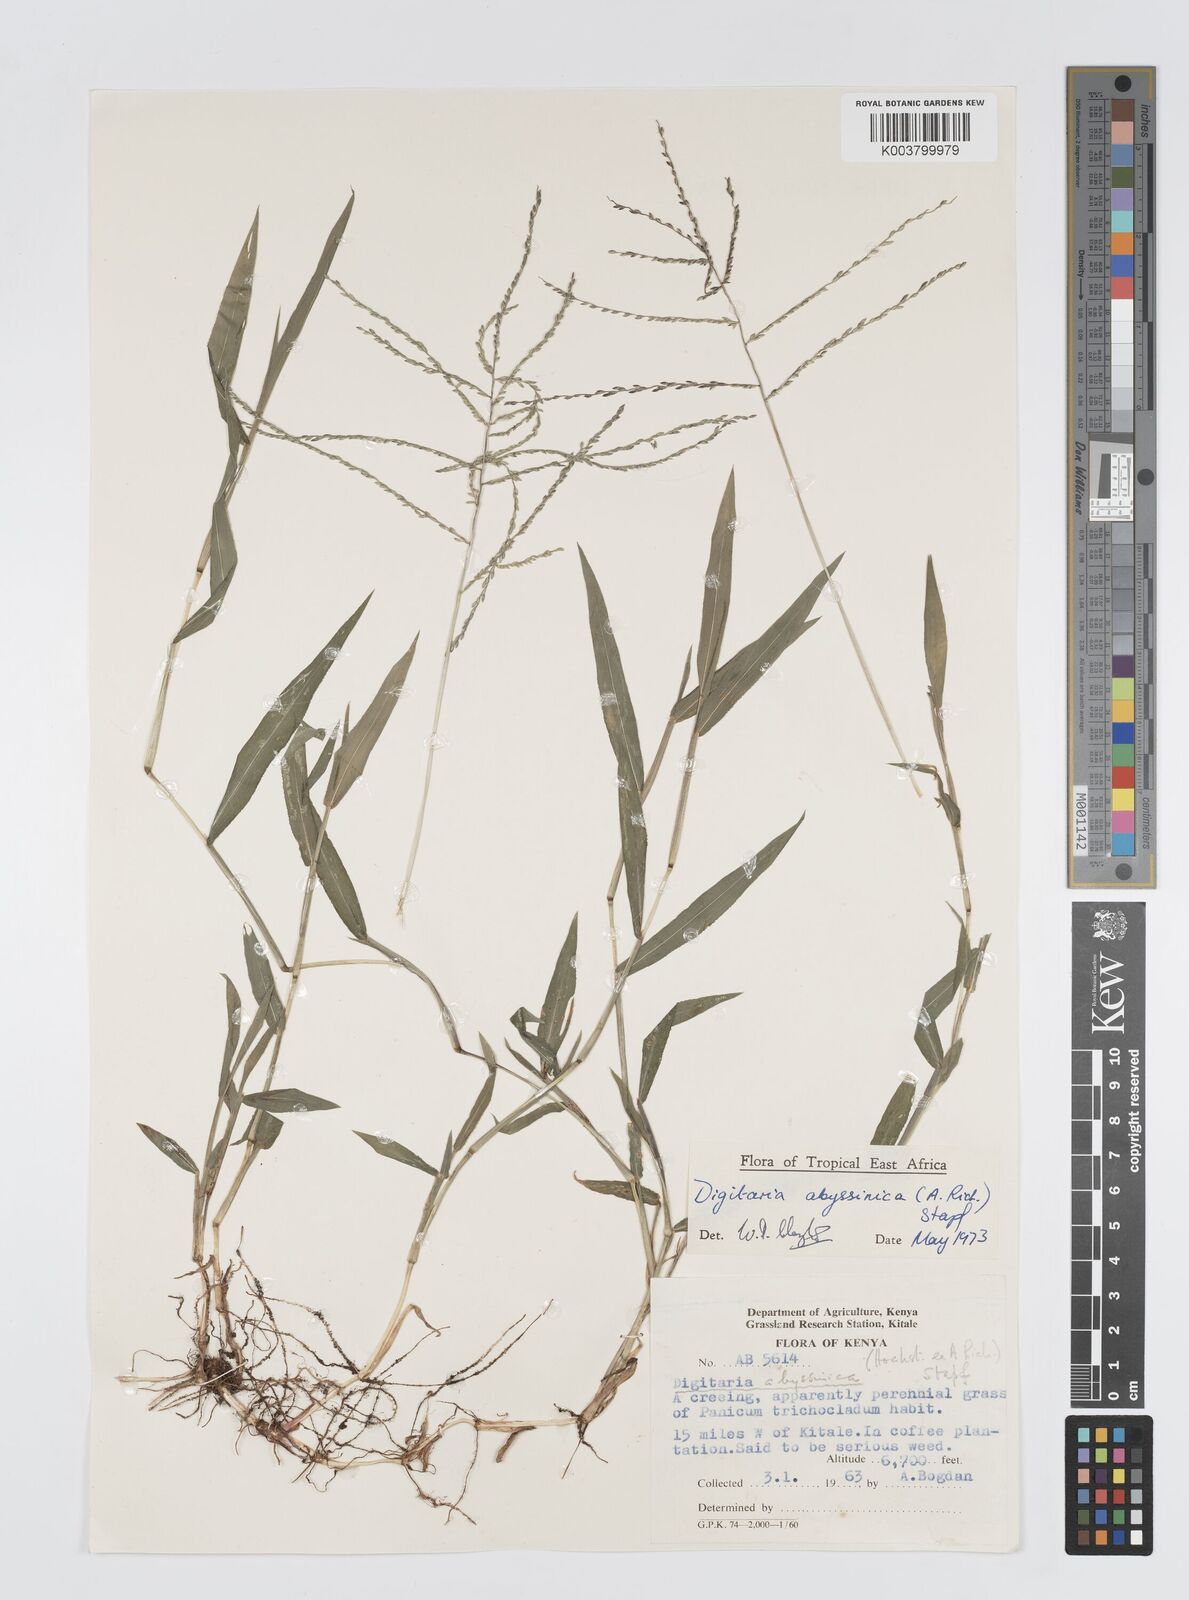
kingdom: Plantae
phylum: Tracheophyta
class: Liliopsida
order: Poales
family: Poaceae
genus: Digitaria
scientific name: Digitaria abyssinica
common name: African couchgrass
